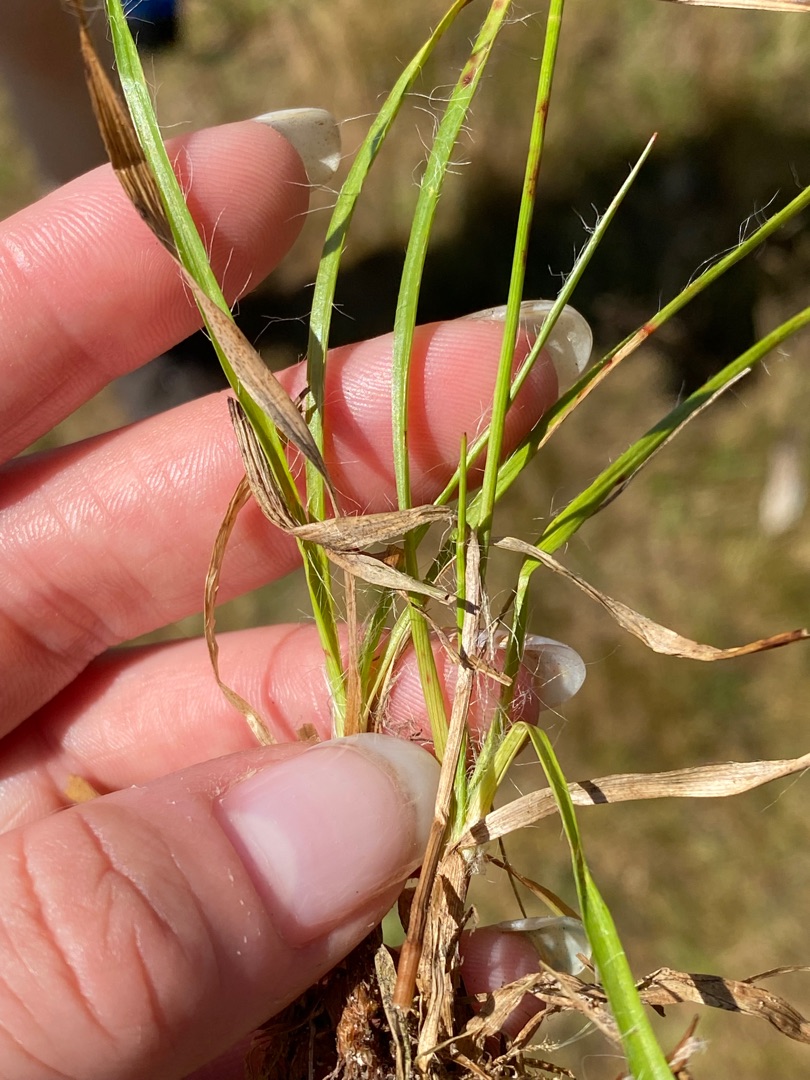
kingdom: Plantae
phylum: Tracheophyta
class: Liliopsida
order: Poales
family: Juncaceae
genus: Luzula
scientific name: Luzula multiflora
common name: Mangeblomstret frytle
